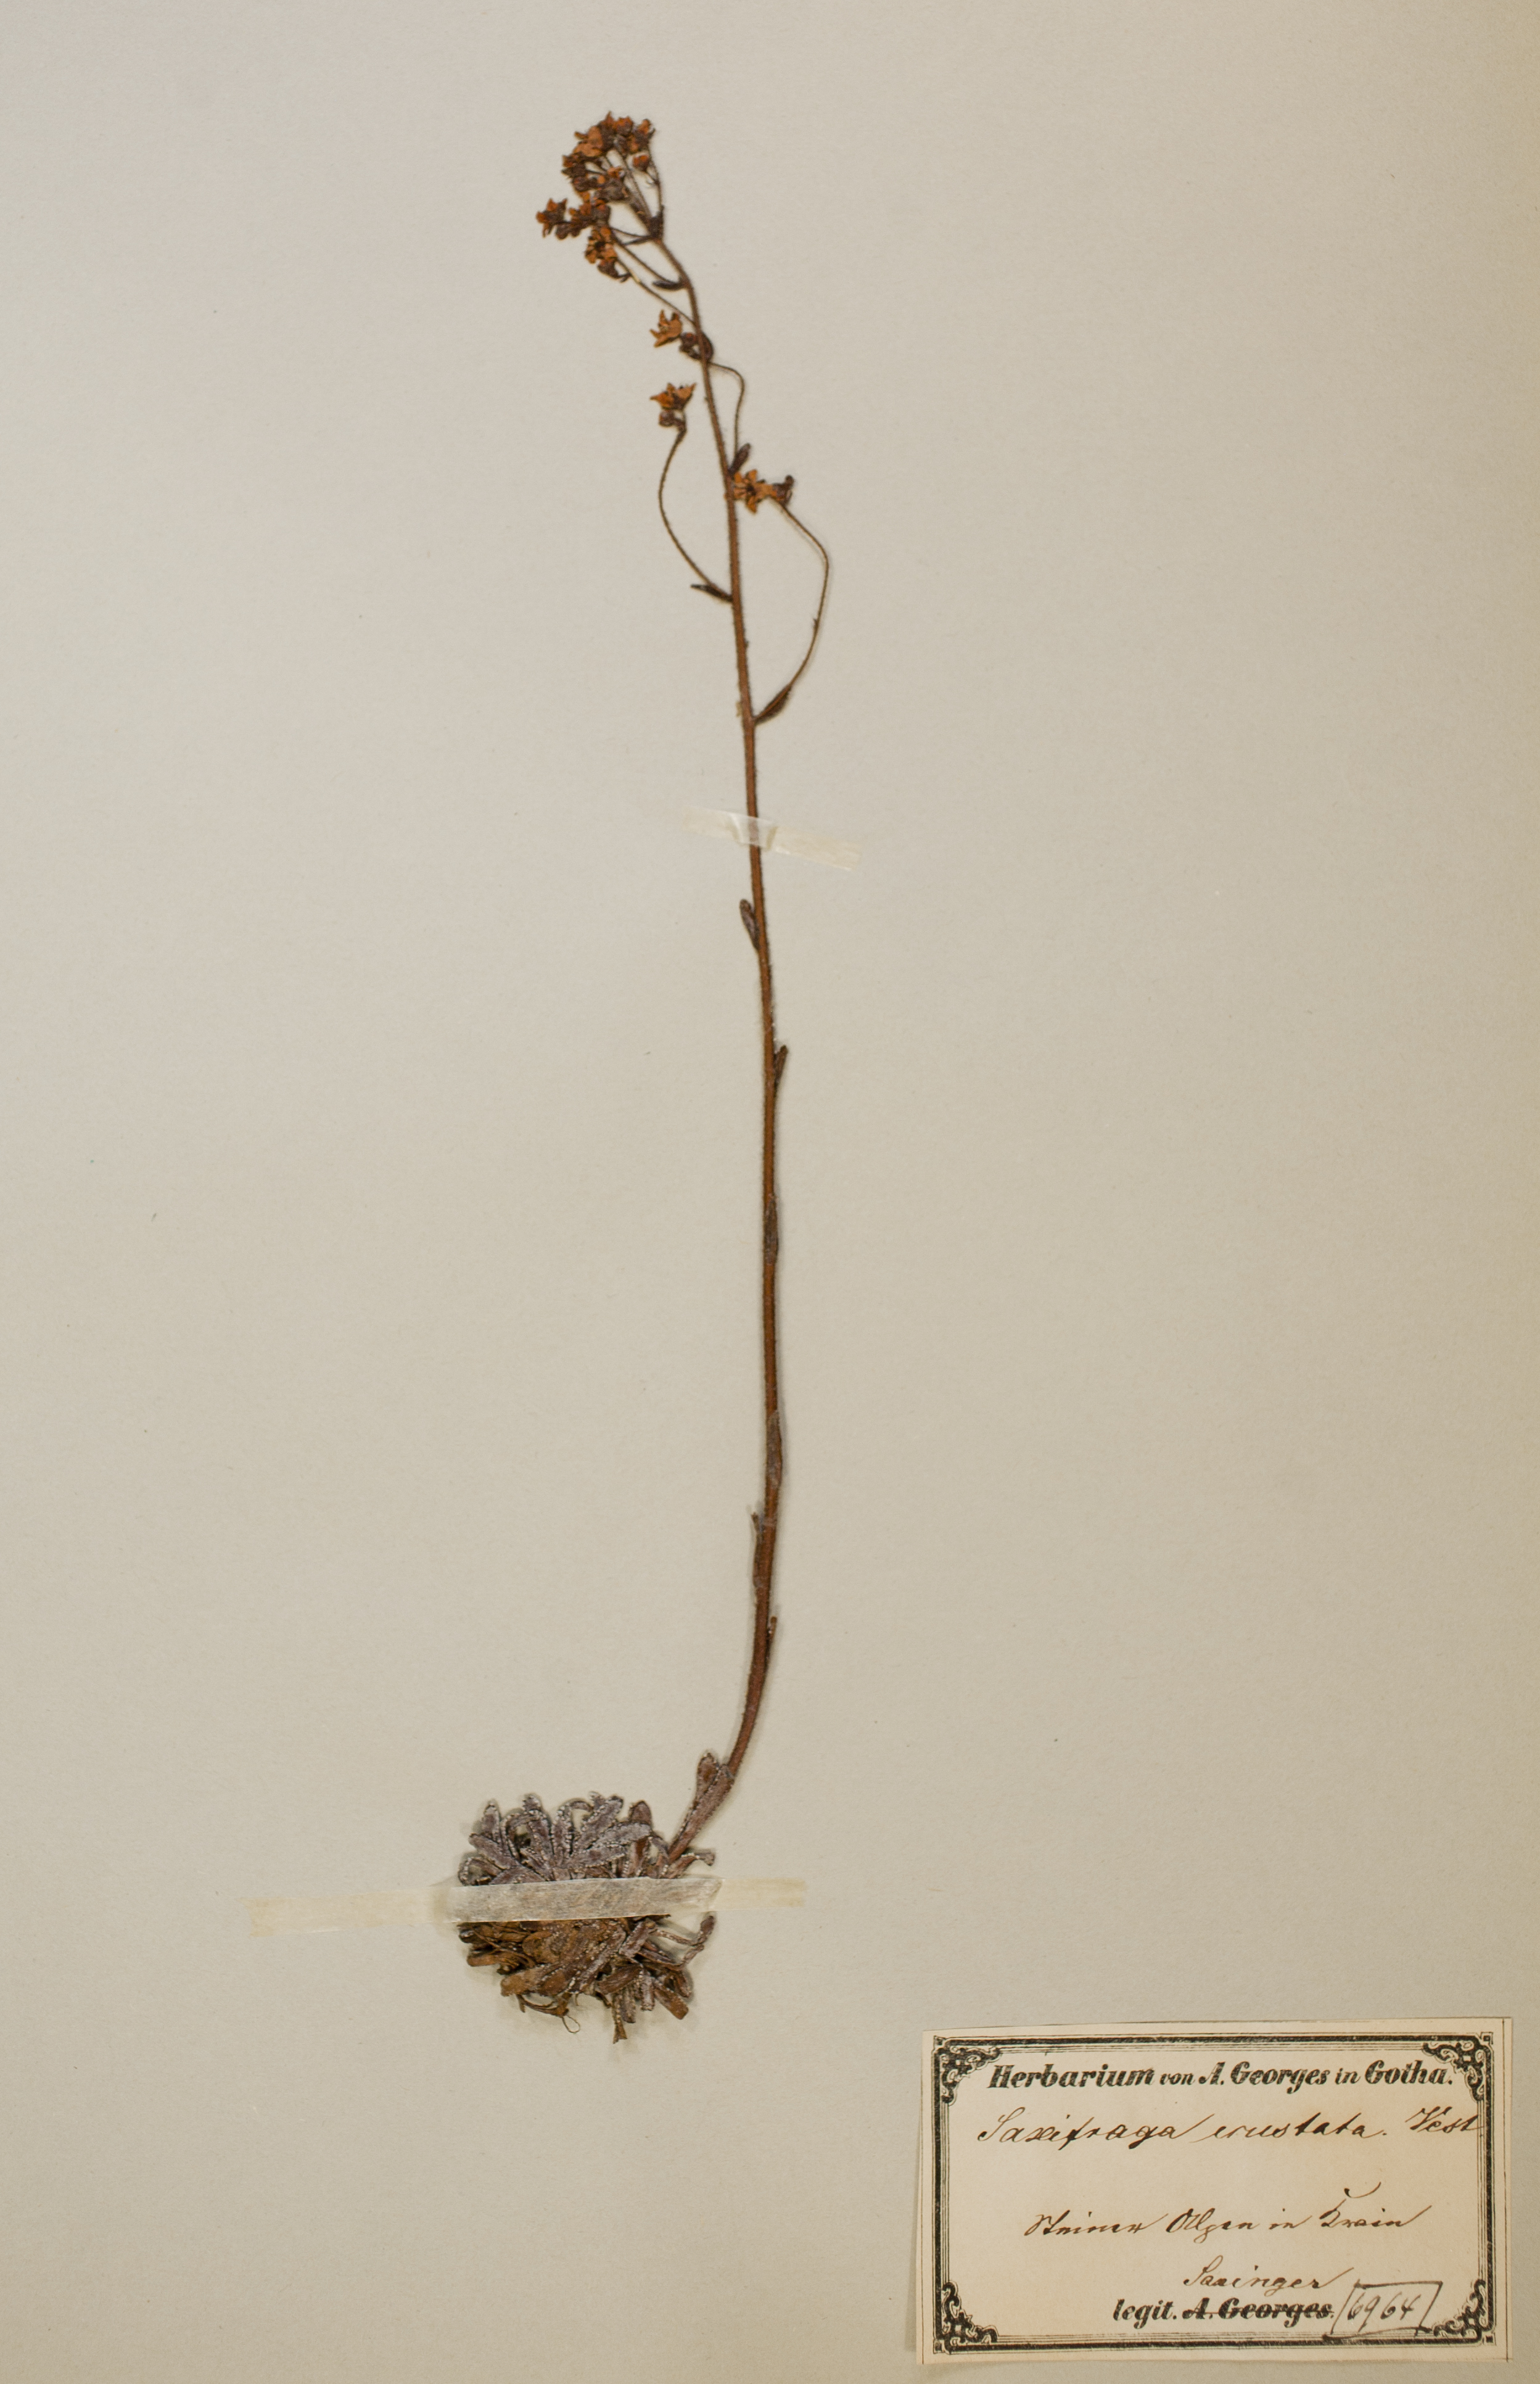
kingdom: Plantae
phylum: Tracheophyta
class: Magnoliopsida
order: Saxifragales
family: Saxifragaceae
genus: Saxifraga
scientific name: Saxifraga crustata
